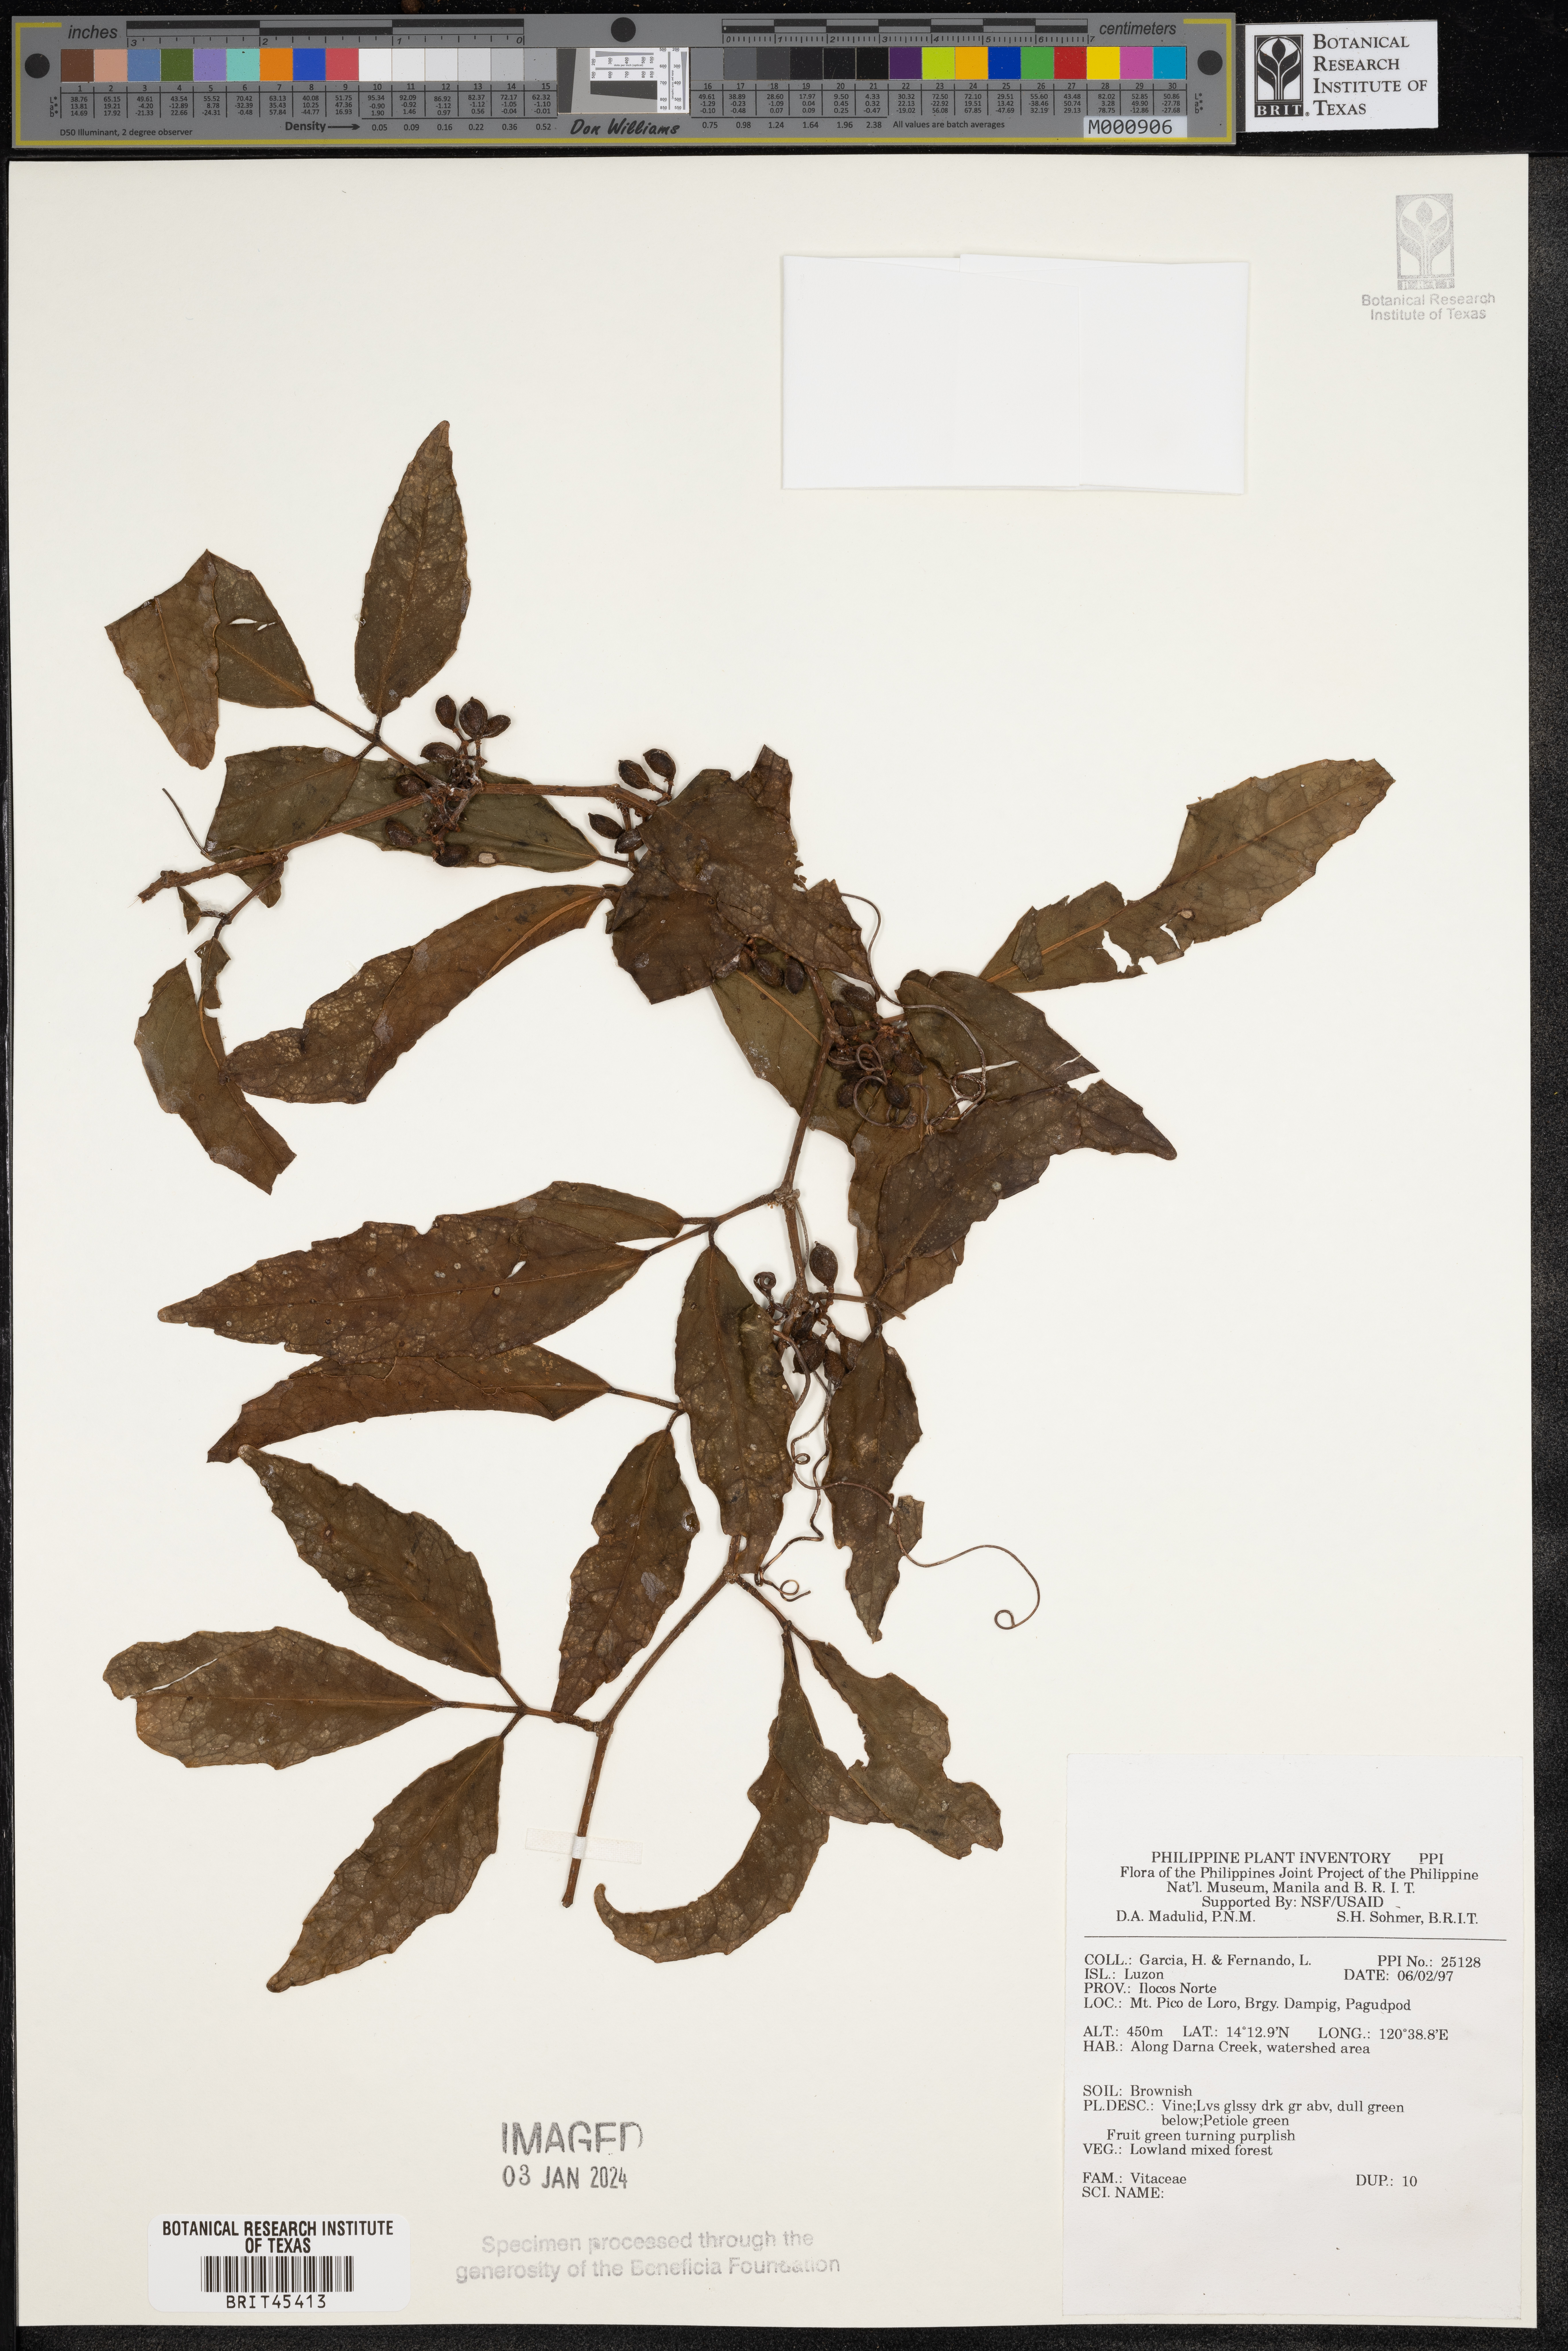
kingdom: Plantae
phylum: Tracheophyta
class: Magnoliopsida
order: Vitales
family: Vitaceae
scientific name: Vitaceae
